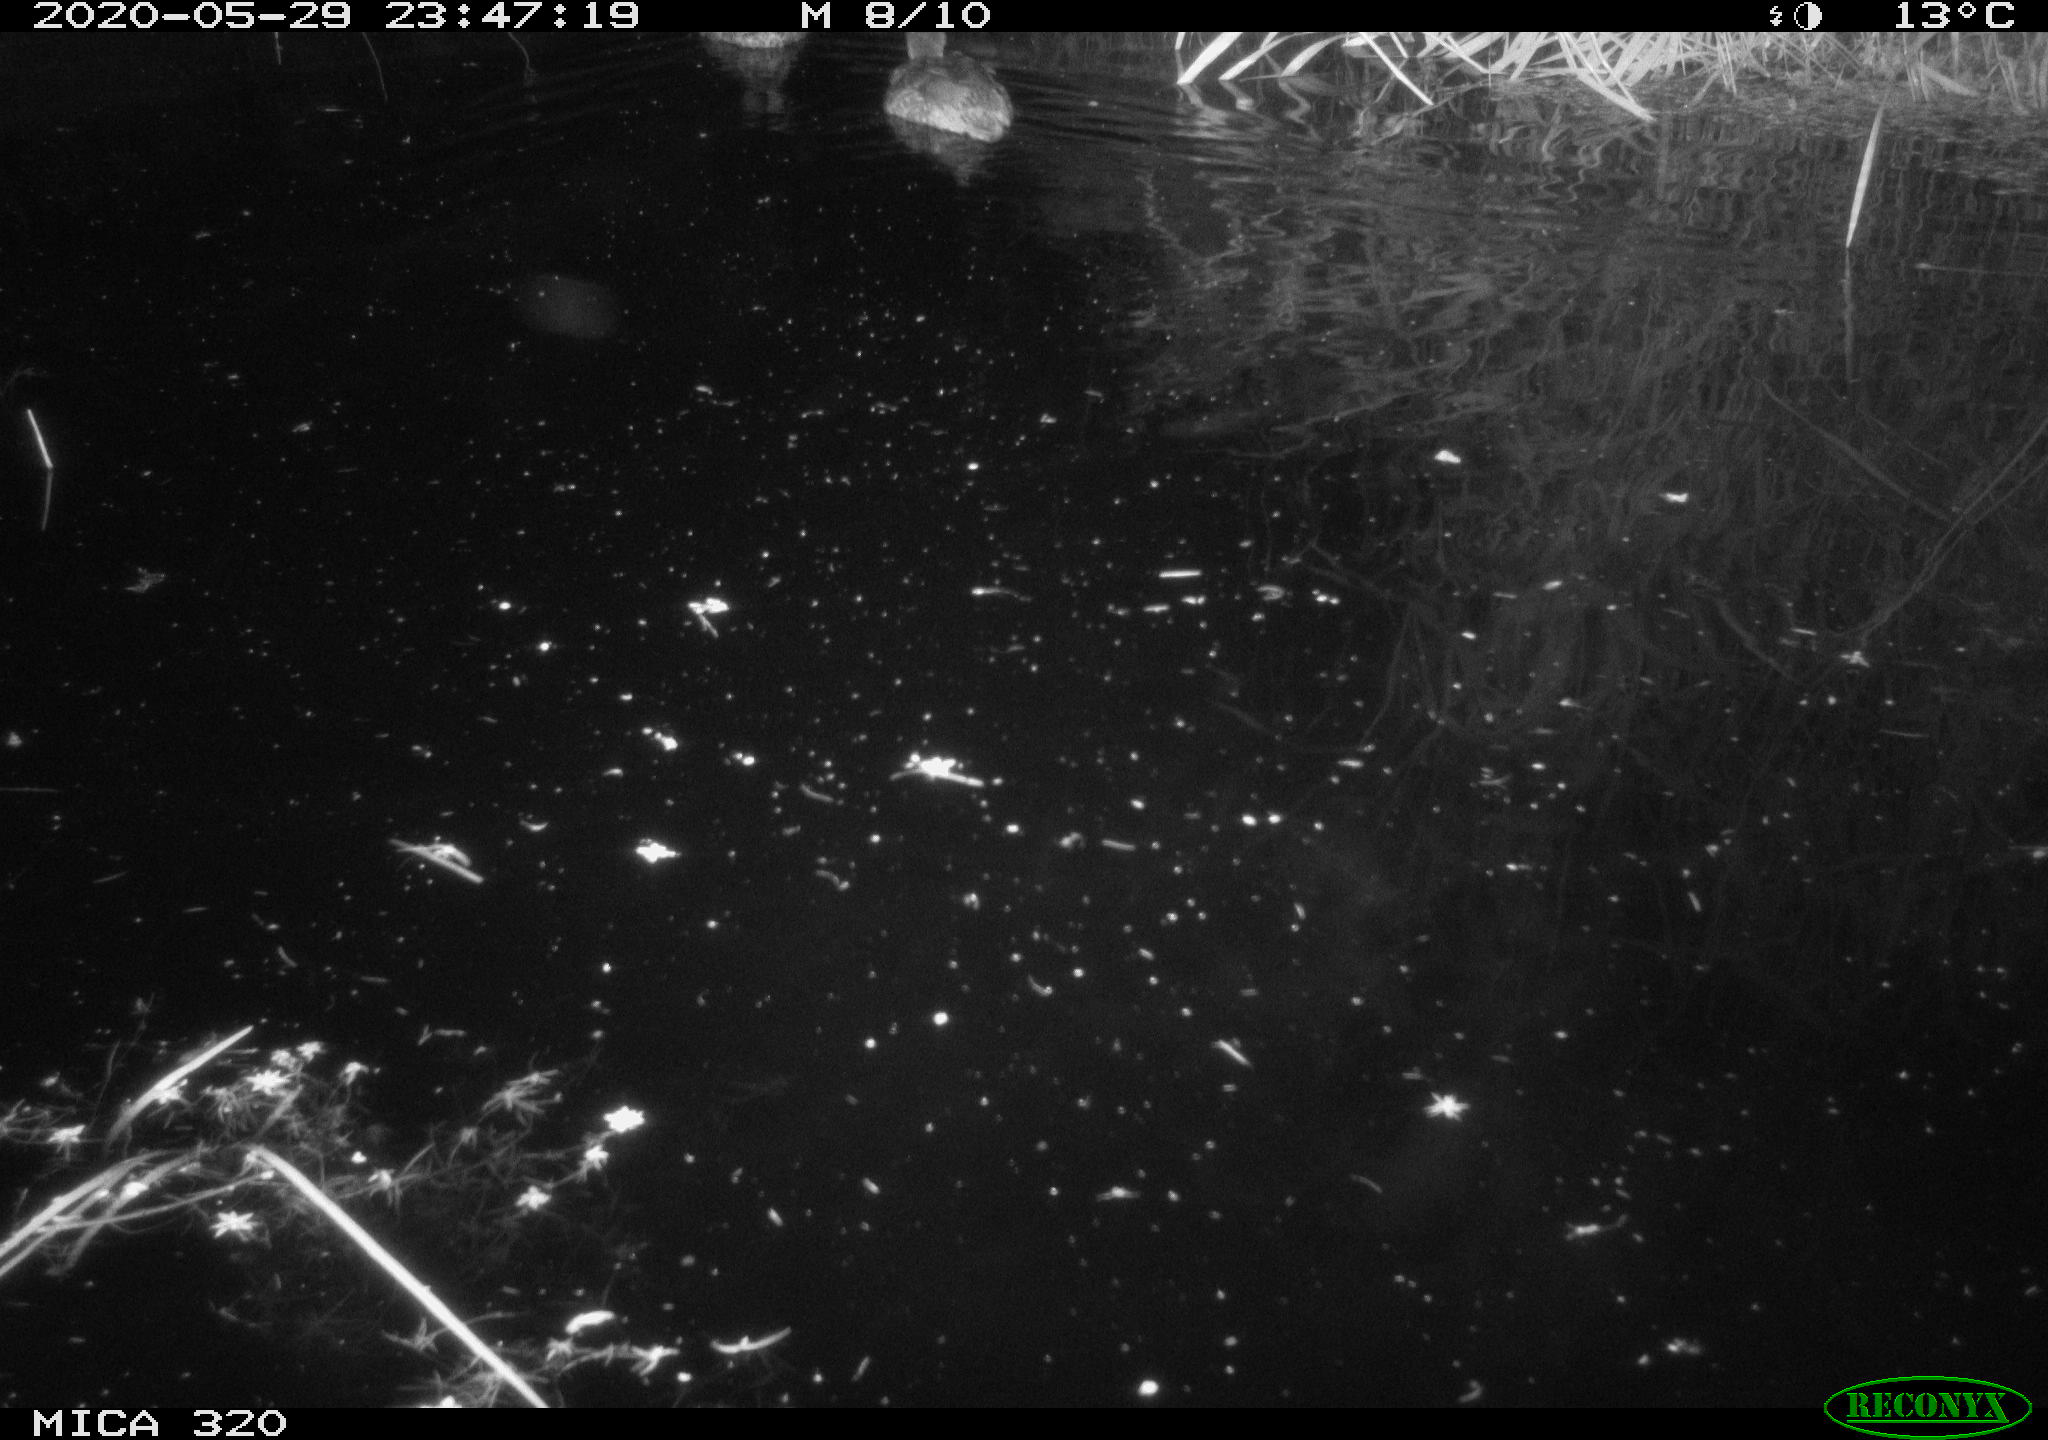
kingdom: Animalia
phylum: Chordata
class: Aves
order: Anseriformes
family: Anatidae
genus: Anas
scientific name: Anas platyrhynchos
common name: Mallard
